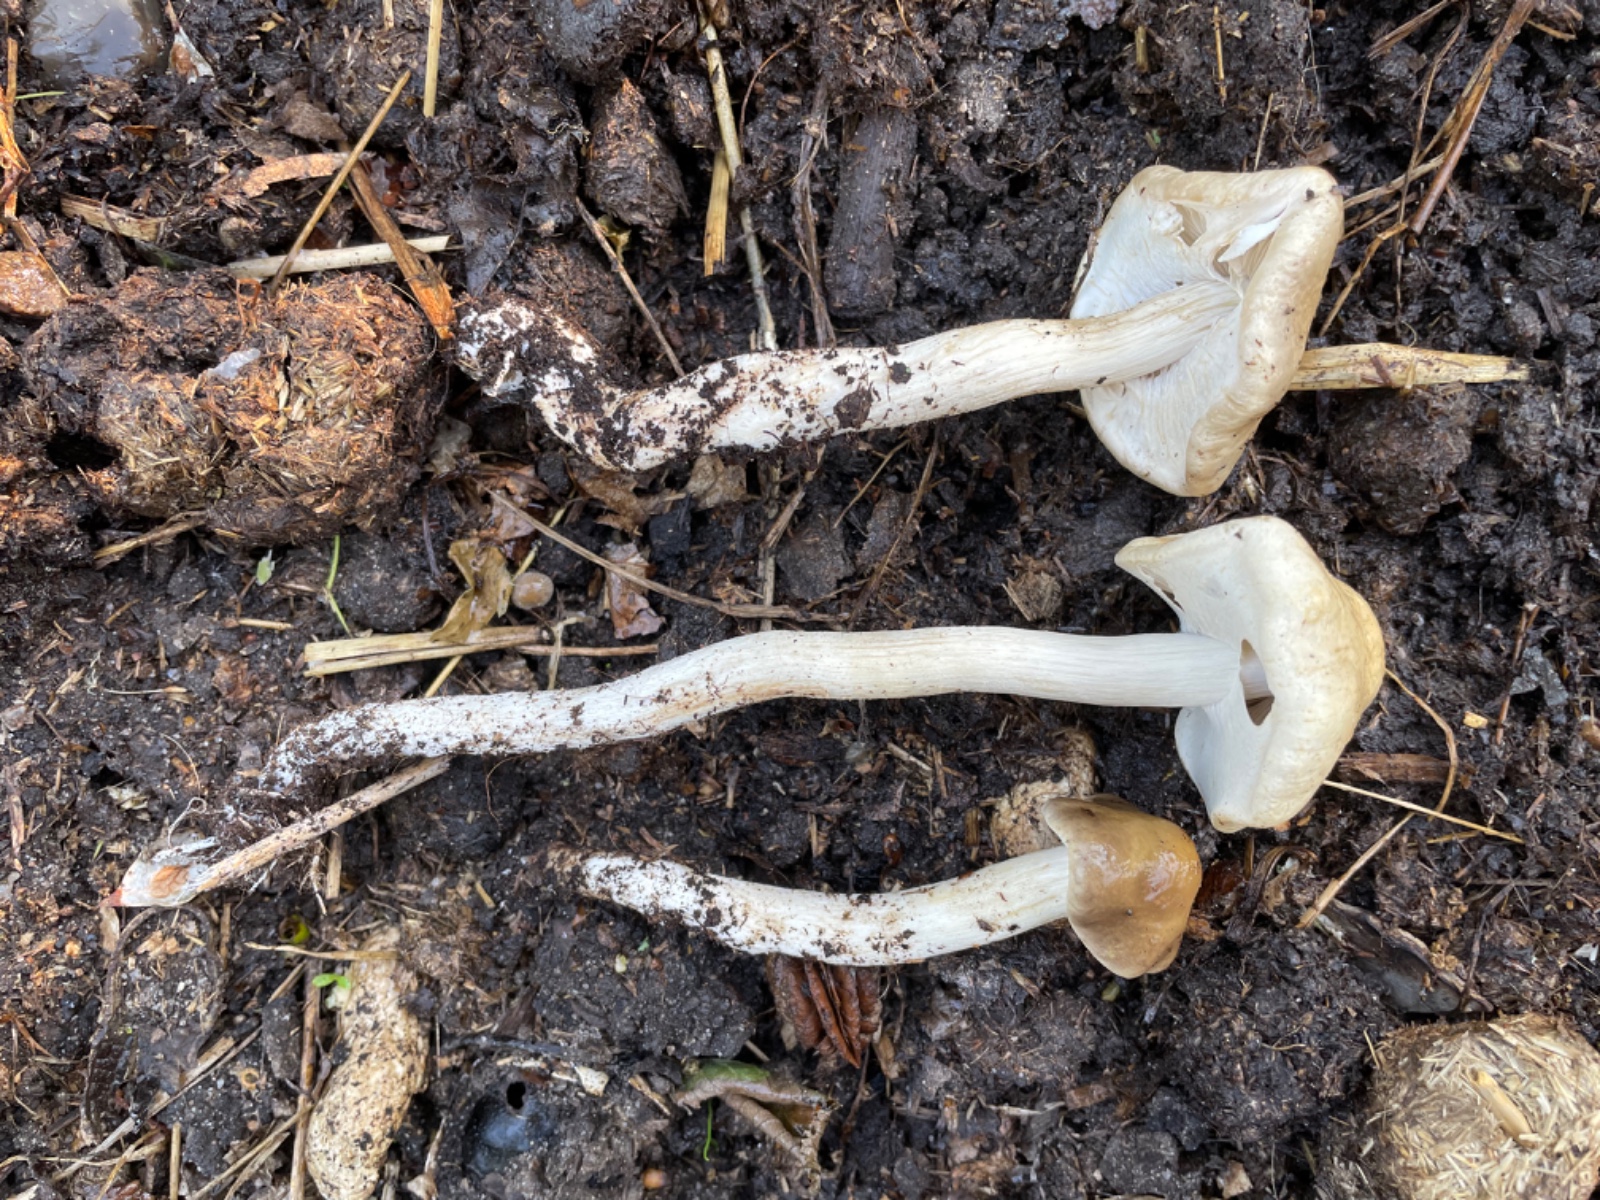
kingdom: Fungi
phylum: Basidiomycota
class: Agaricomycetes
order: Agaricales
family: Strophariaceae
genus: Agrocybe
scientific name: Agrocybe praecox
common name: tidlig agerhat
